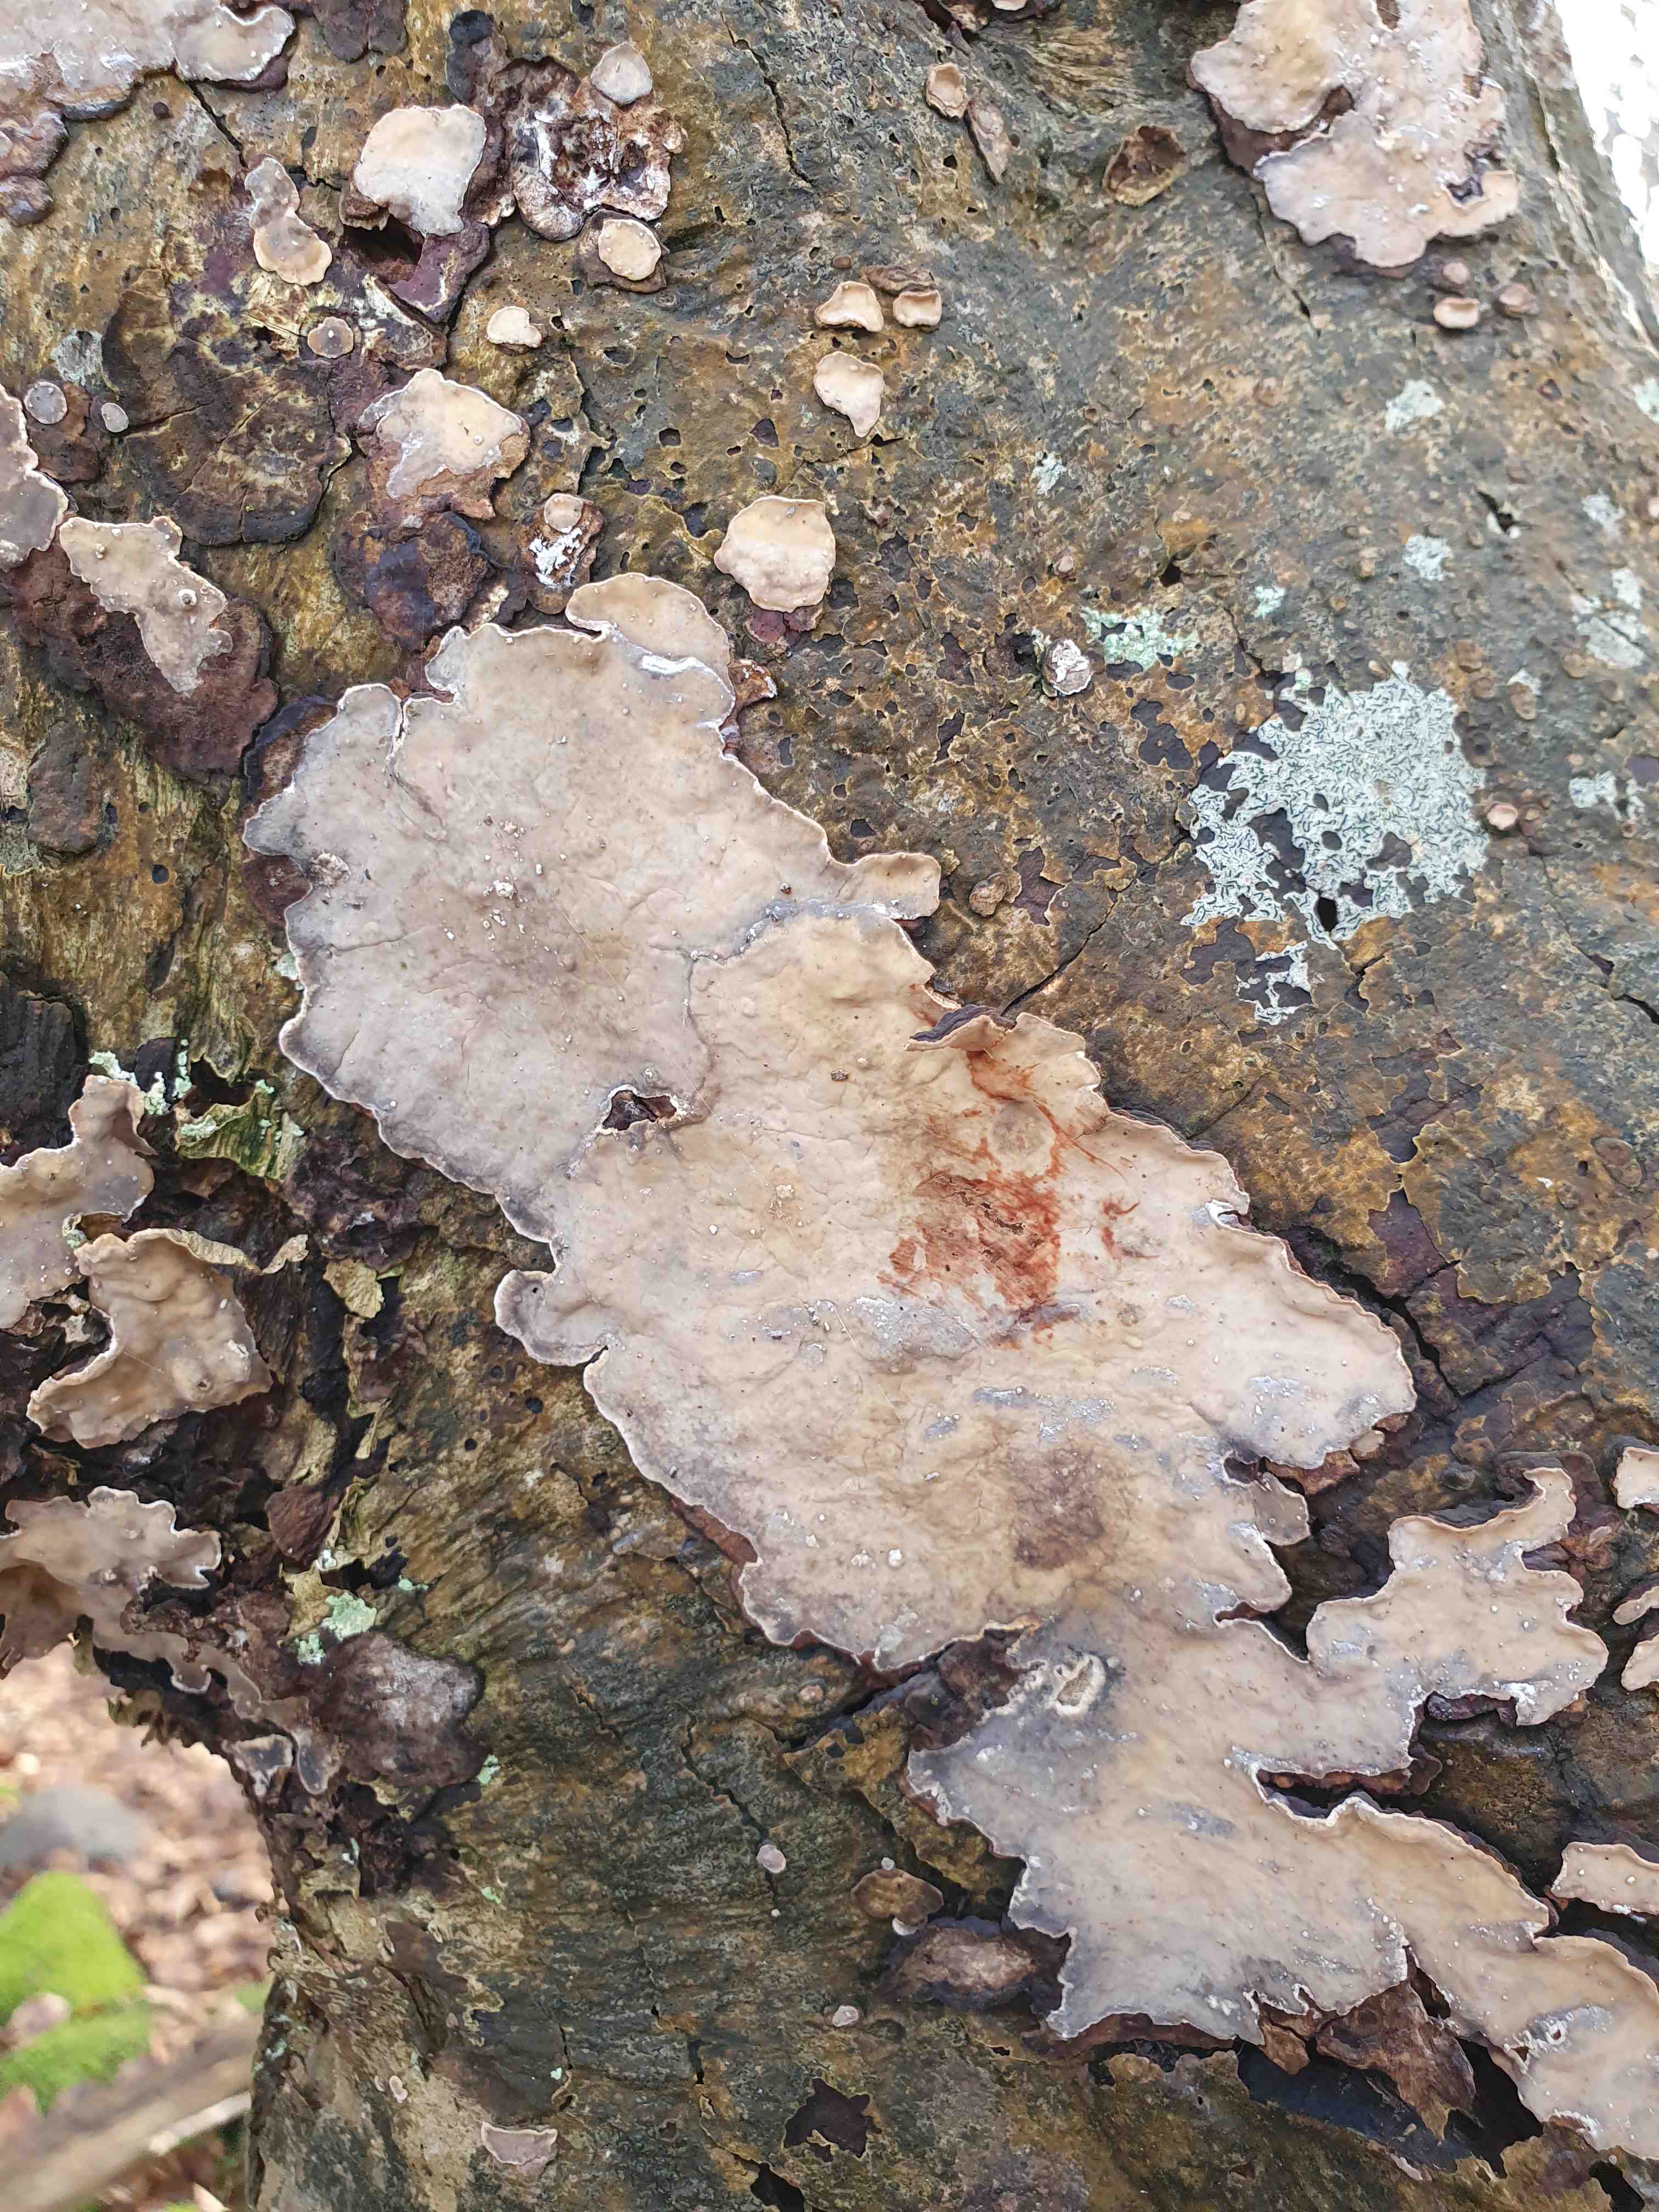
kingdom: Fungi
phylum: Basidiomycota
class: Agaricomycetes
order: Russulales
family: Stereaceae
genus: Stereum
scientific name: Stereum rugosum
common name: rynket lædersvamp
